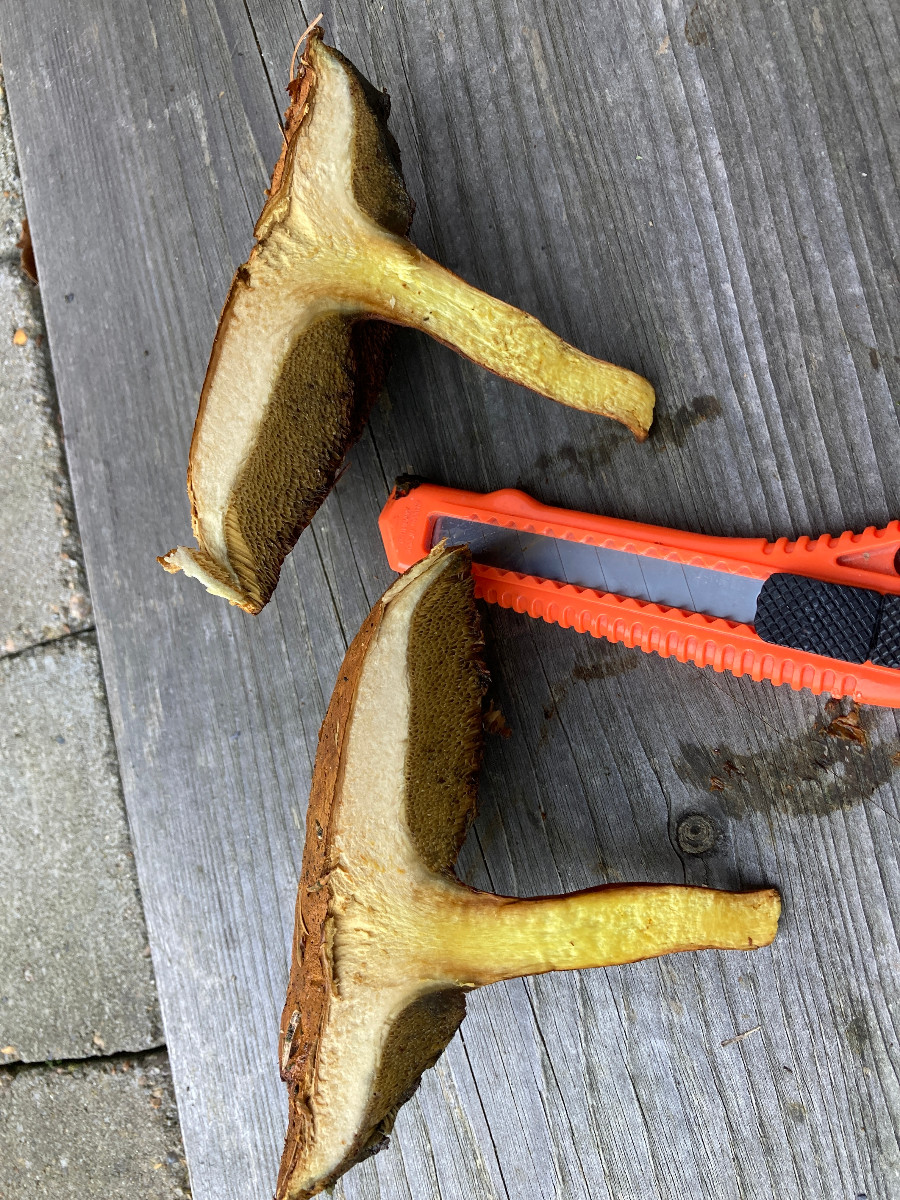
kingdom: Fungi
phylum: Basidiomycota
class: Agaricomycetes
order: Boletales
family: Boletaceae
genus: Chalciporus
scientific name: Chalciporus piperatus
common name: peberrørhat
